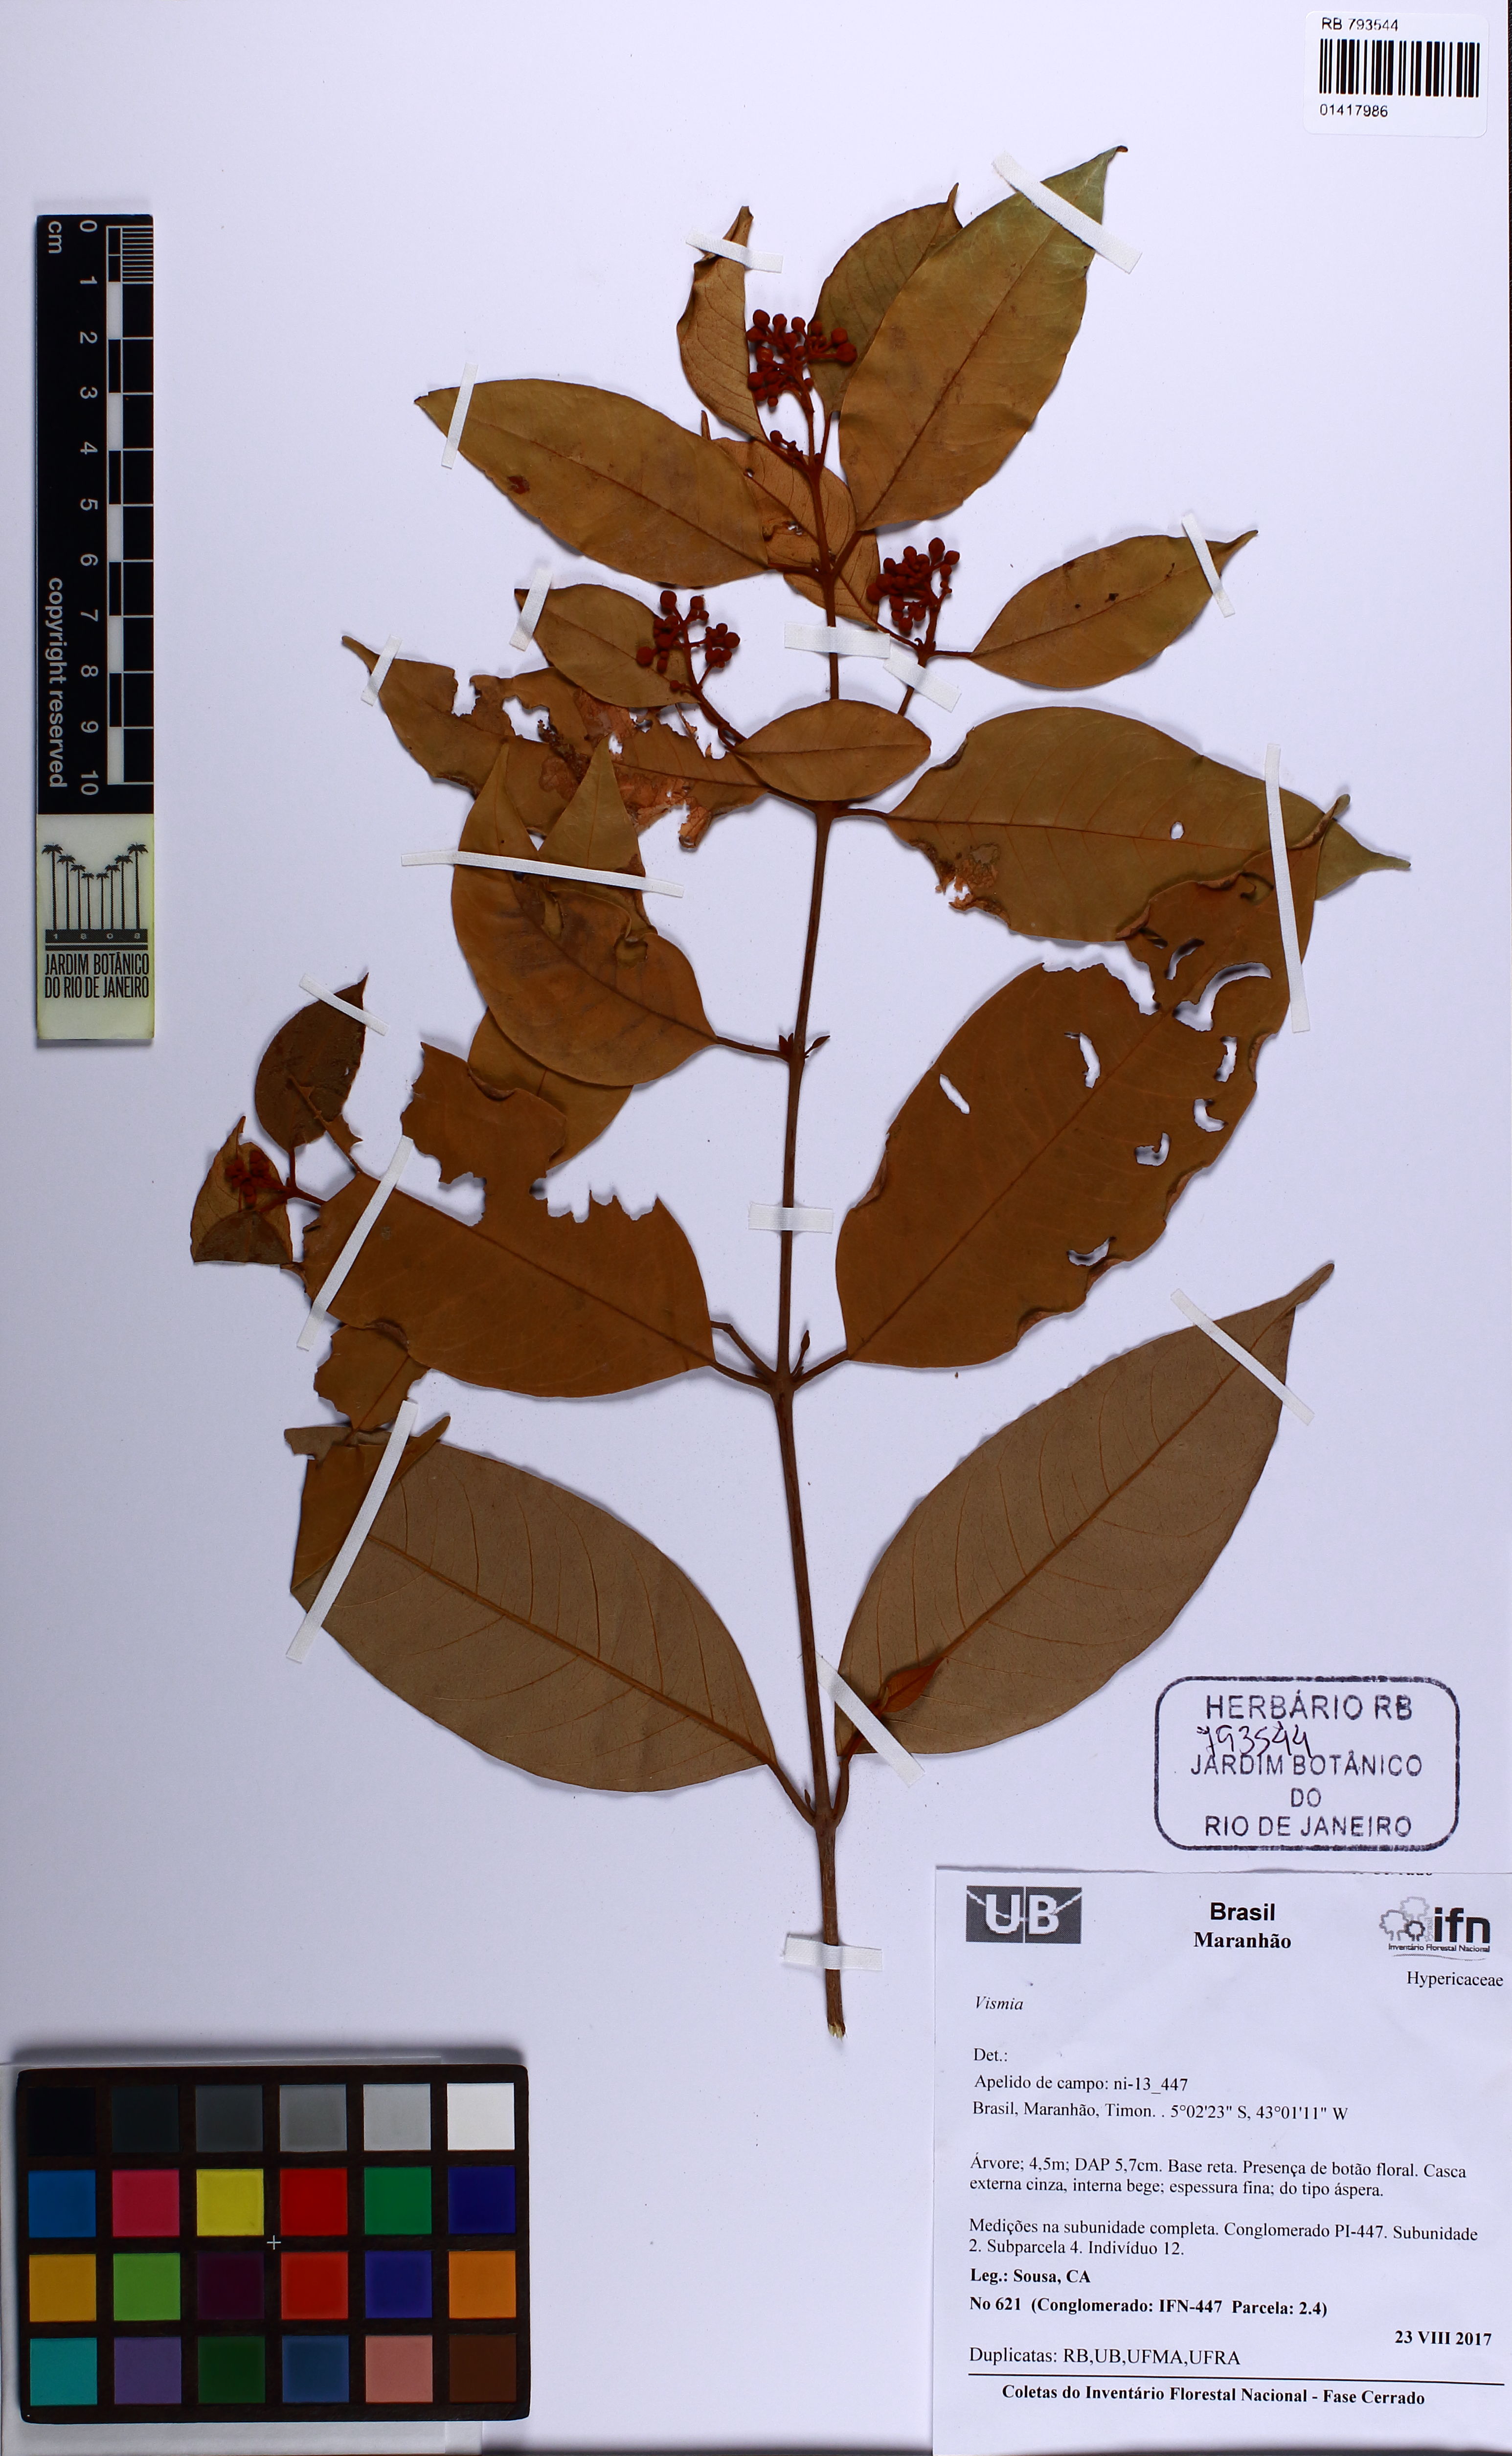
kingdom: Plantae
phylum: Tracheophyta
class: Magnoliopsida
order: Malpighiales
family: Hypericaceae
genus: Vismia
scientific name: Vismia
